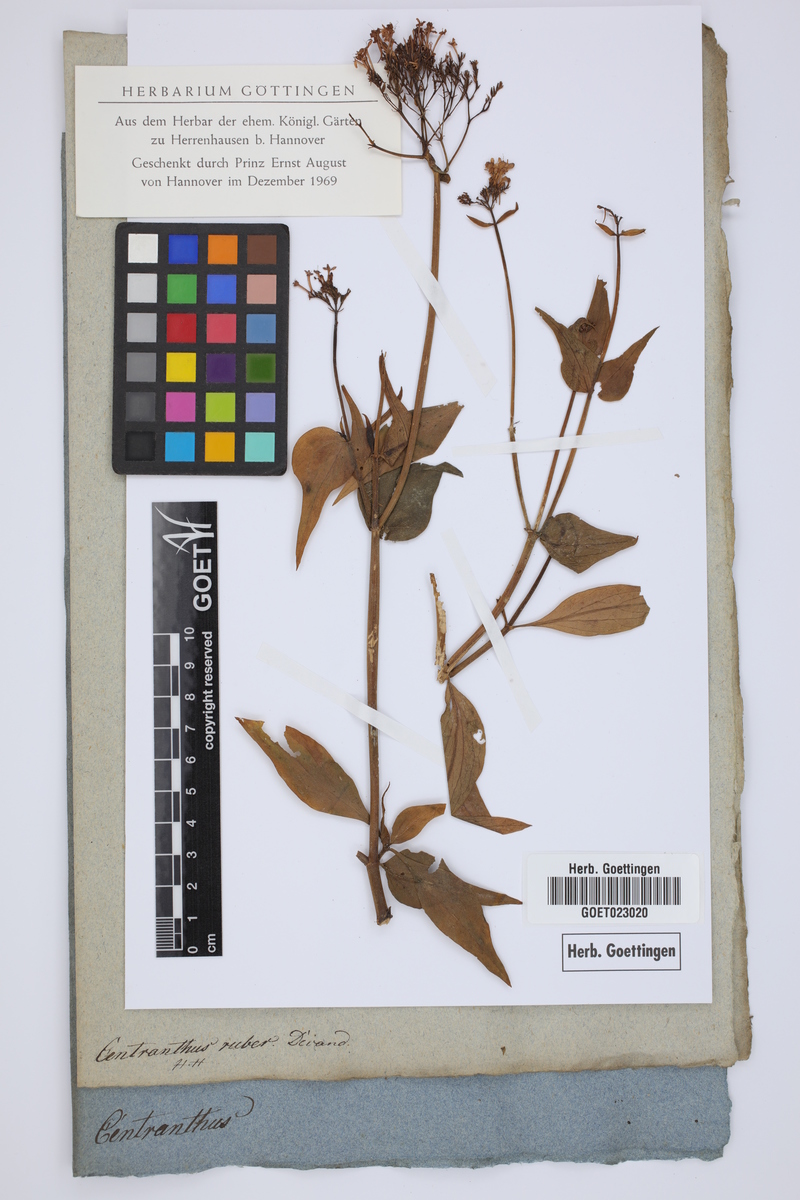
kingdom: Plantae
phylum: Tracheophyta
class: Magnoliopsida
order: Dipsacales
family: Caprifoliaceae
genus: Centranthus
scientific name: Centranthus ruber
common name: Red valerian
